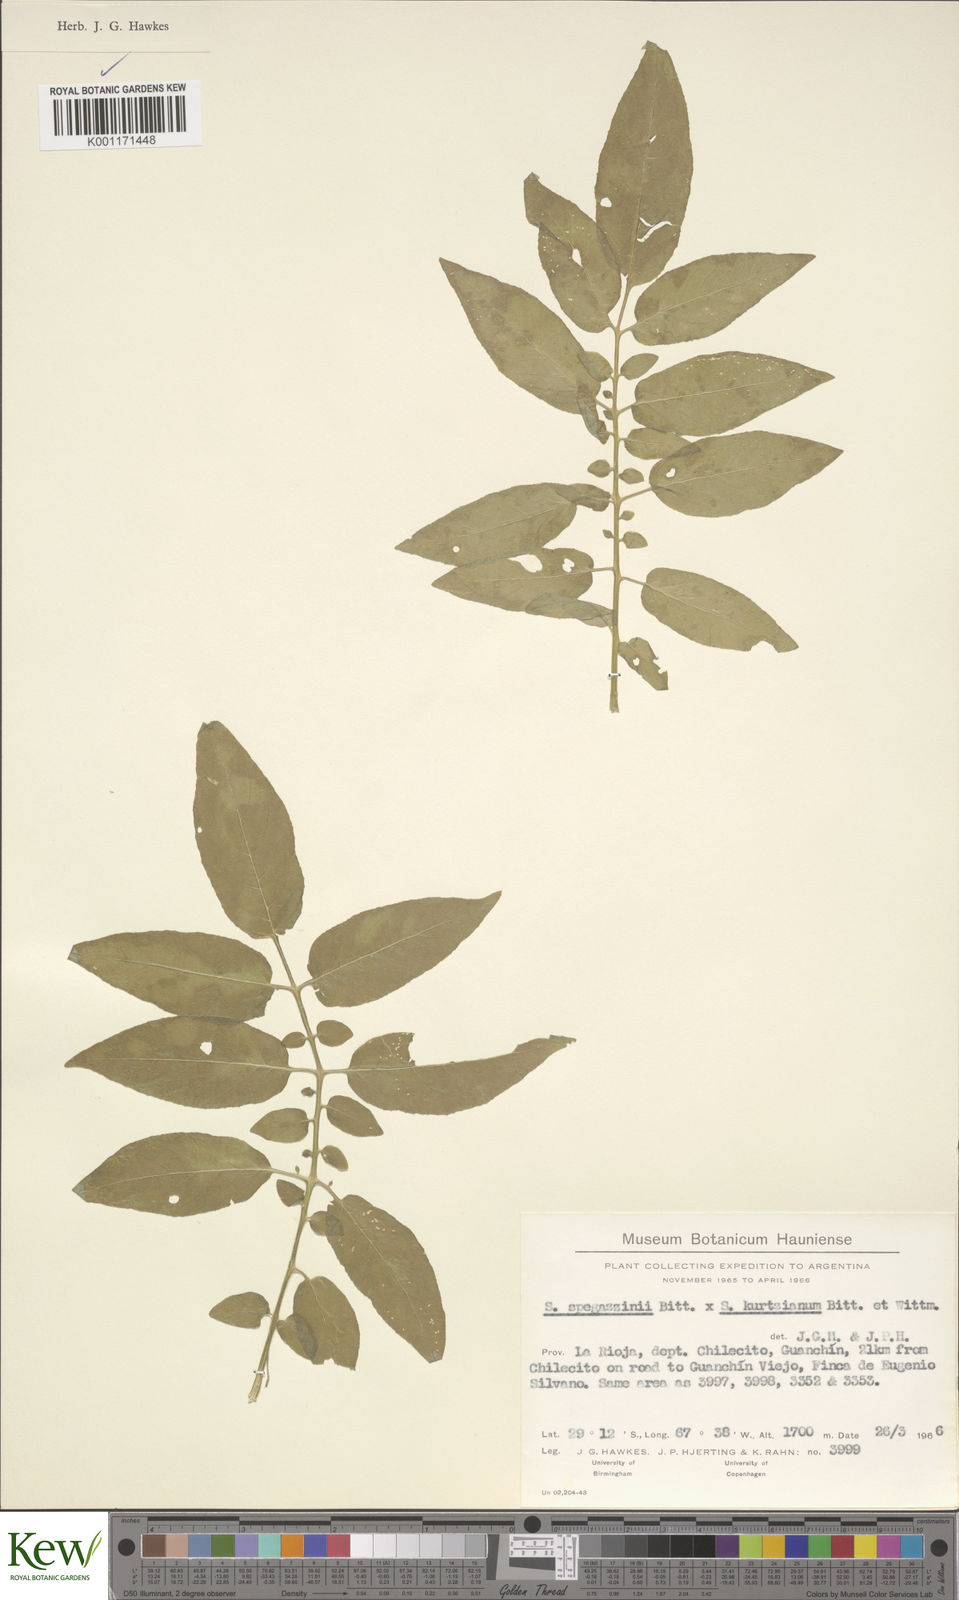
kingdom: Plantae
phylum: Tracheophyta
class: Magnoliopsida
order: Solanales
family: Solanaceae
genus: Solanum
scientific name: Solanum brevicaule
